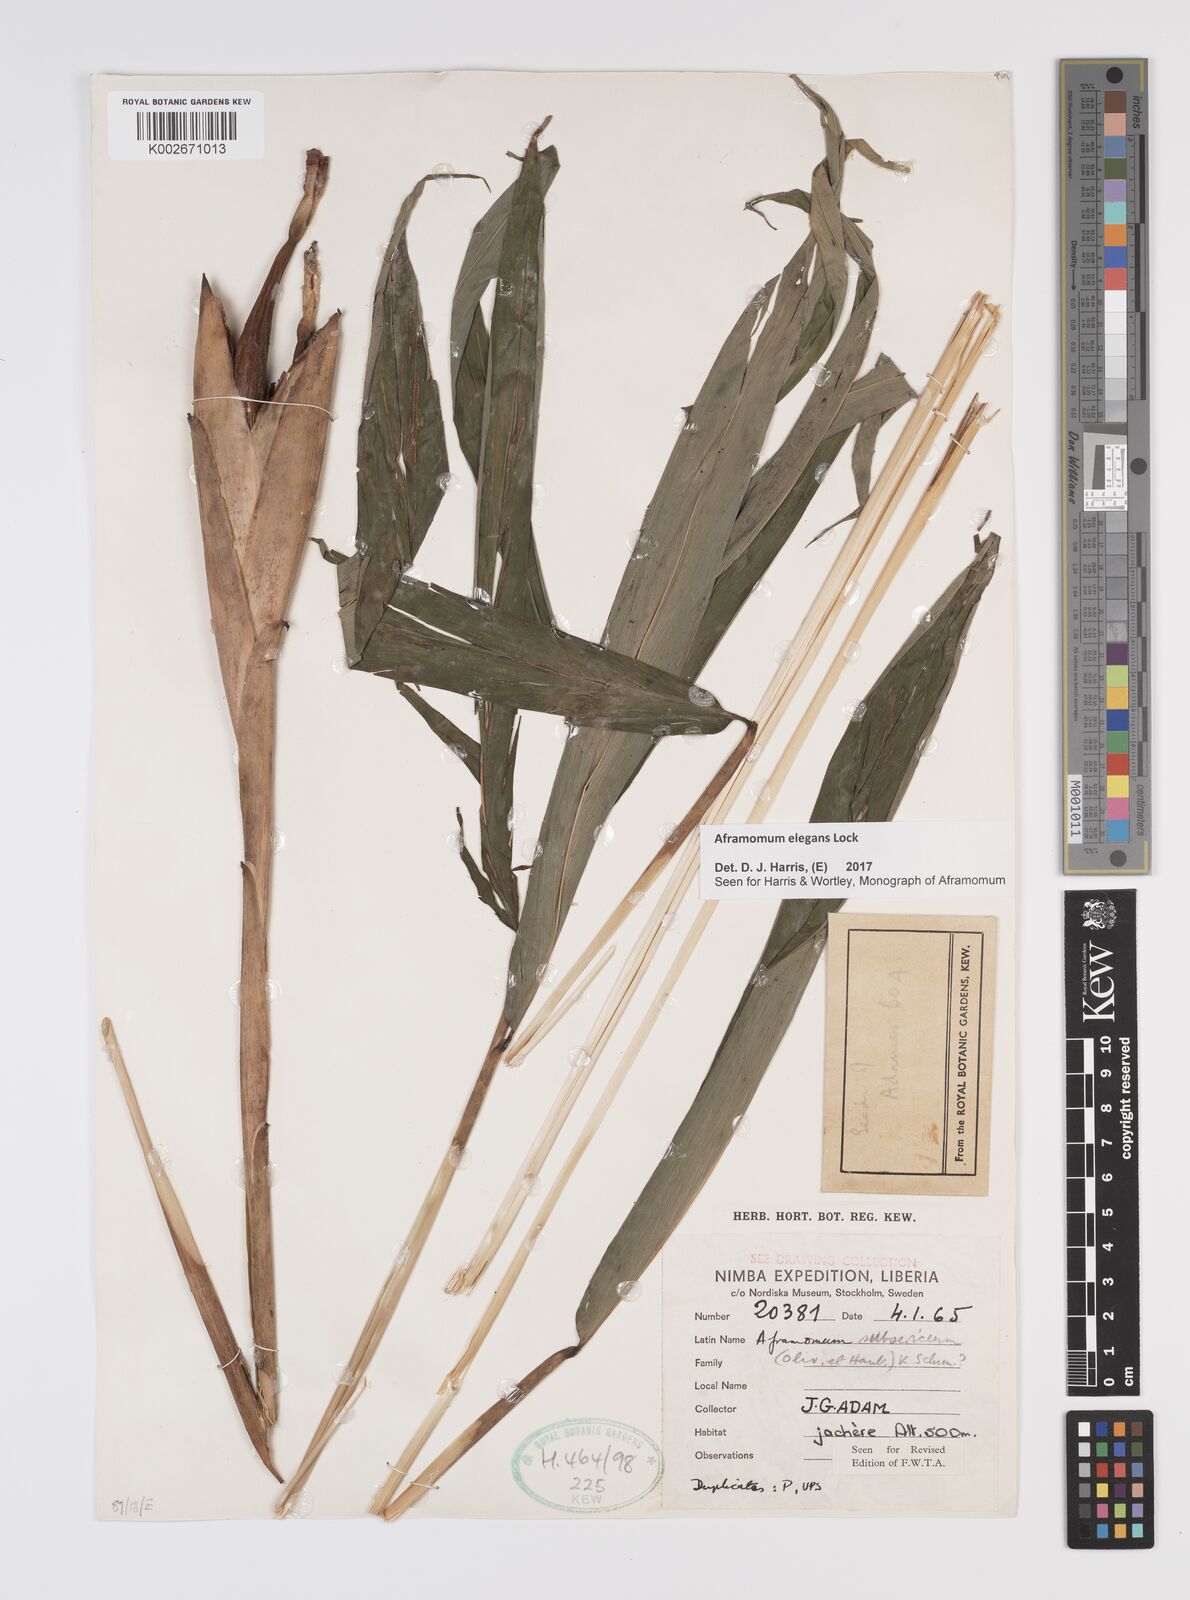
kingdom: Plantae
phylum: Tracheophyta
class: Liliopsida
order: Zingiberales
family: Zingiberaceae
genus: Aframomum
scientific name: Aframomum elegans
